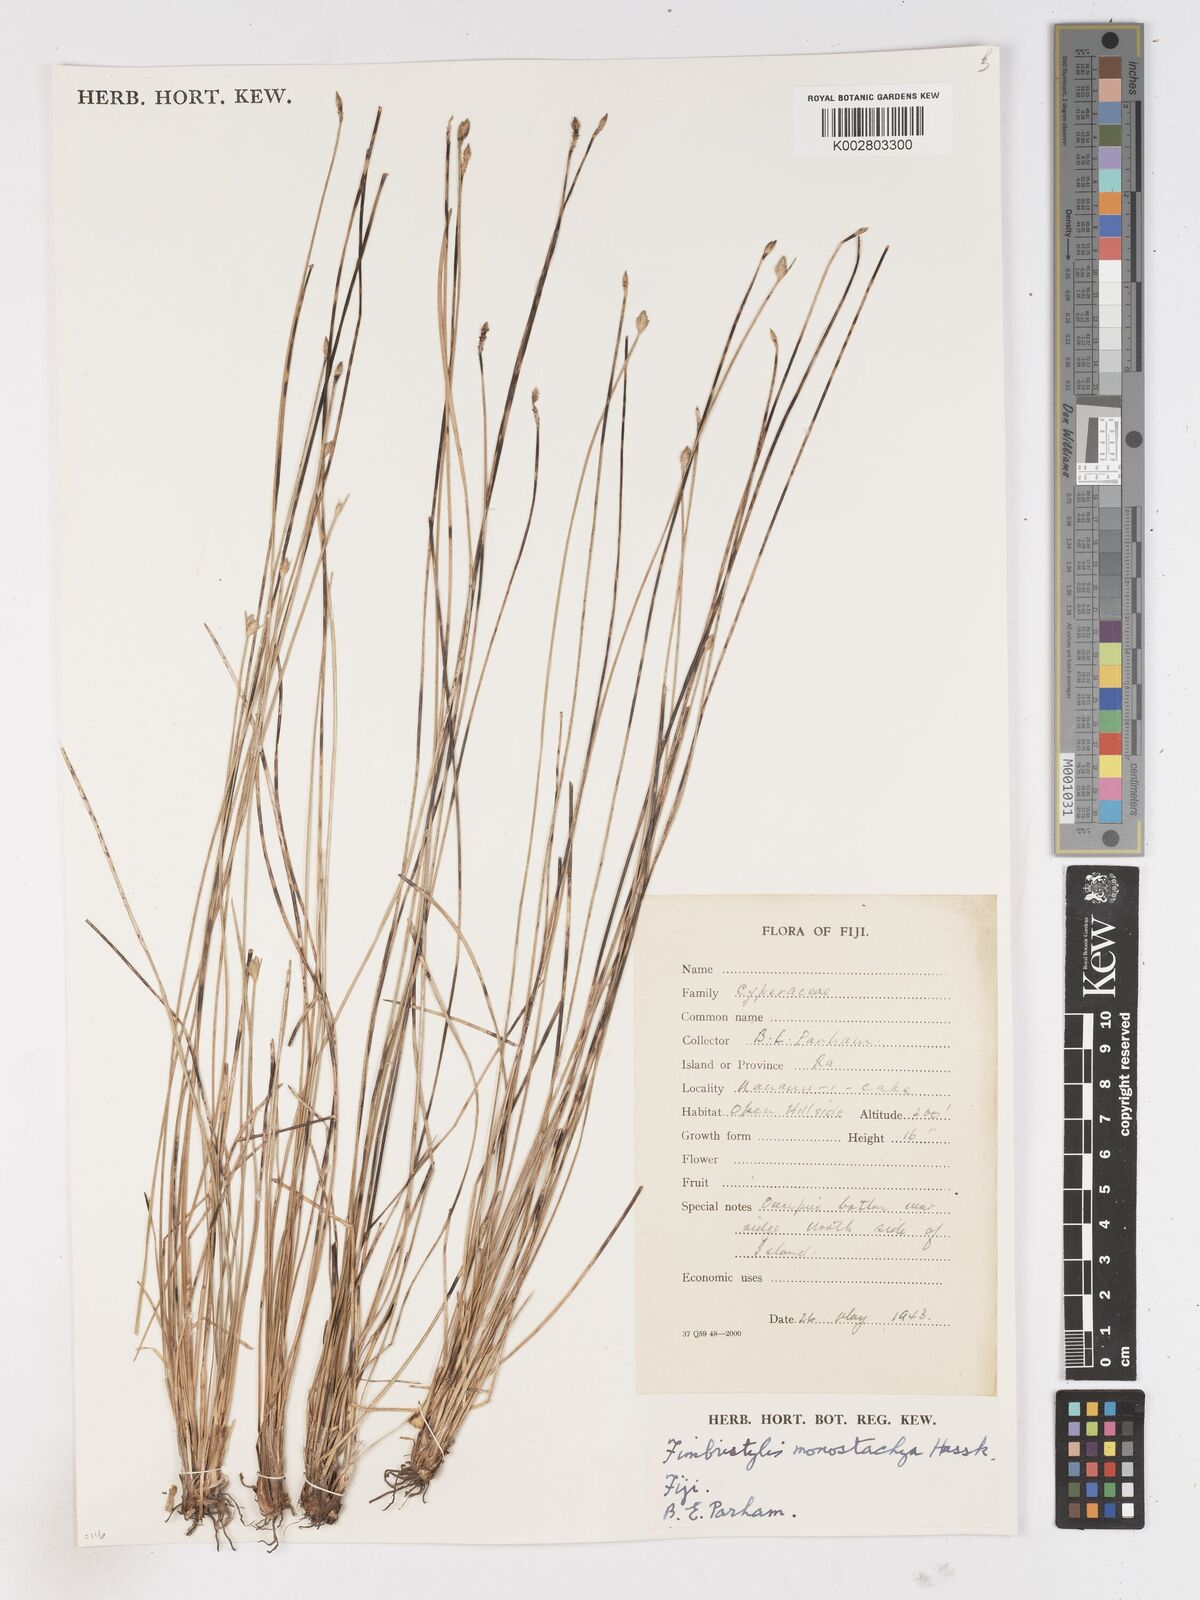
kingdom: Plantae
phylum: Tracheophyta
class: Liliopsida
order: Poales
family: Cyperaceae
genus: Abildgaardia
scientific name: Abildgaardia ovata
